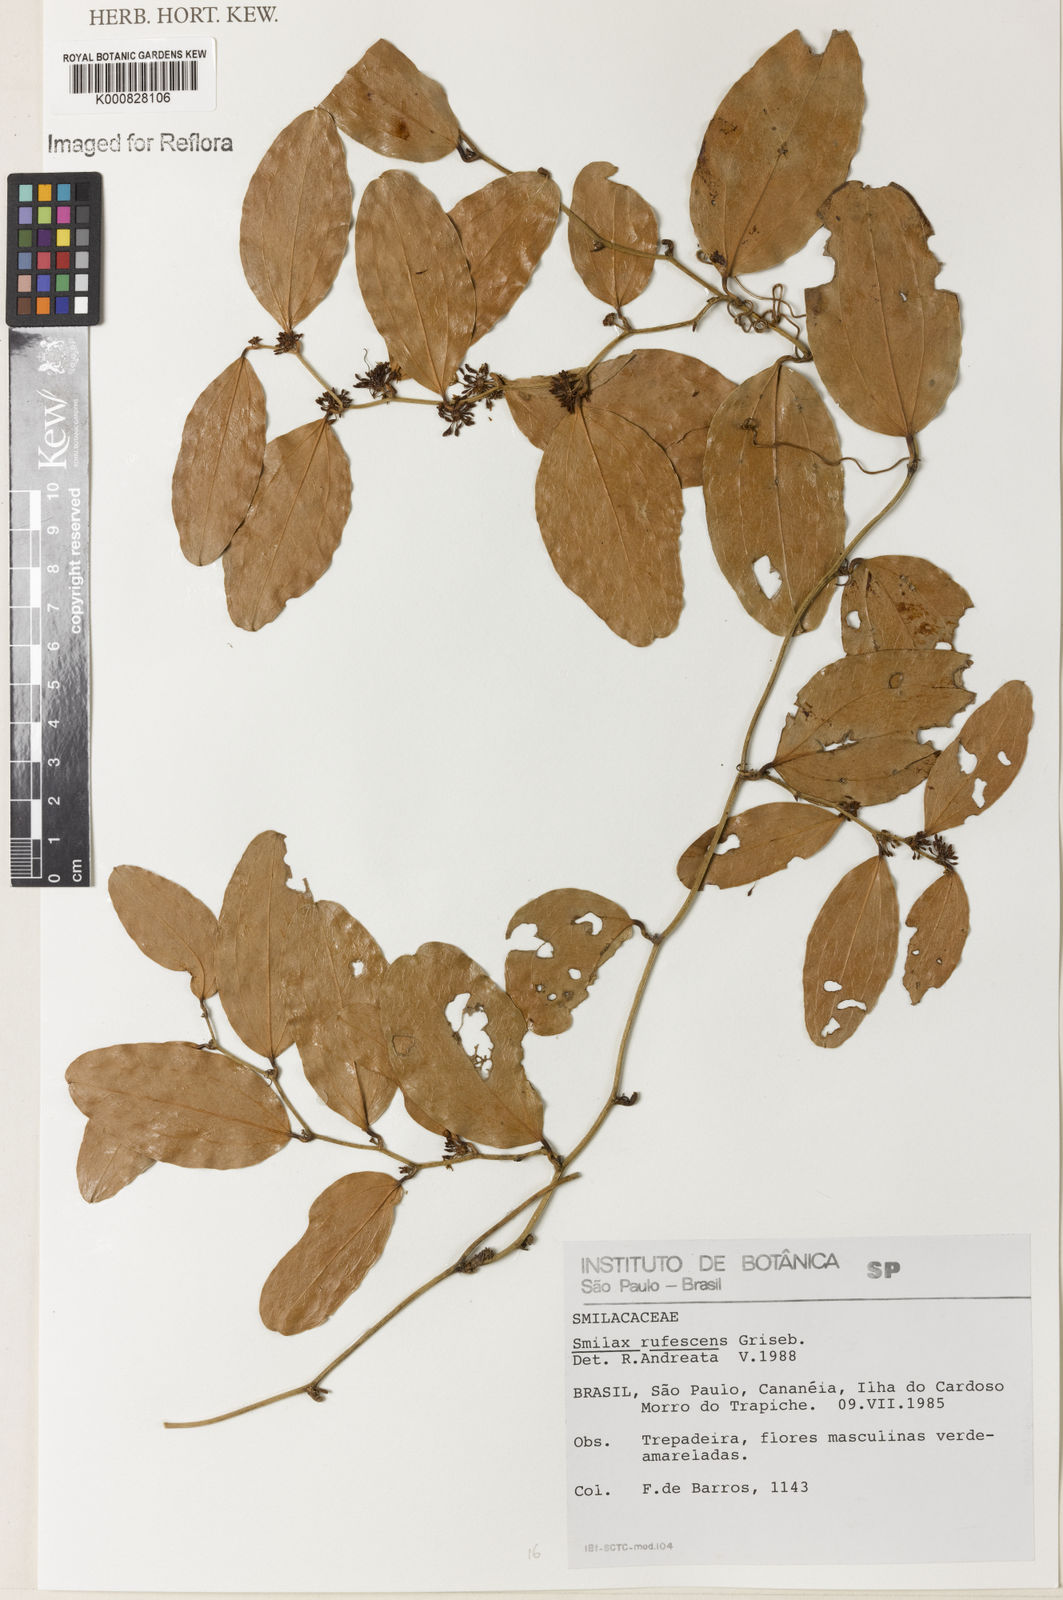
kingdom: Plantae
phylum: Tracheophyta
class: Liliopsida
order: Liliales
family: Smilacaceae
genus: Smilax
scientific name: Smilax rufescens
